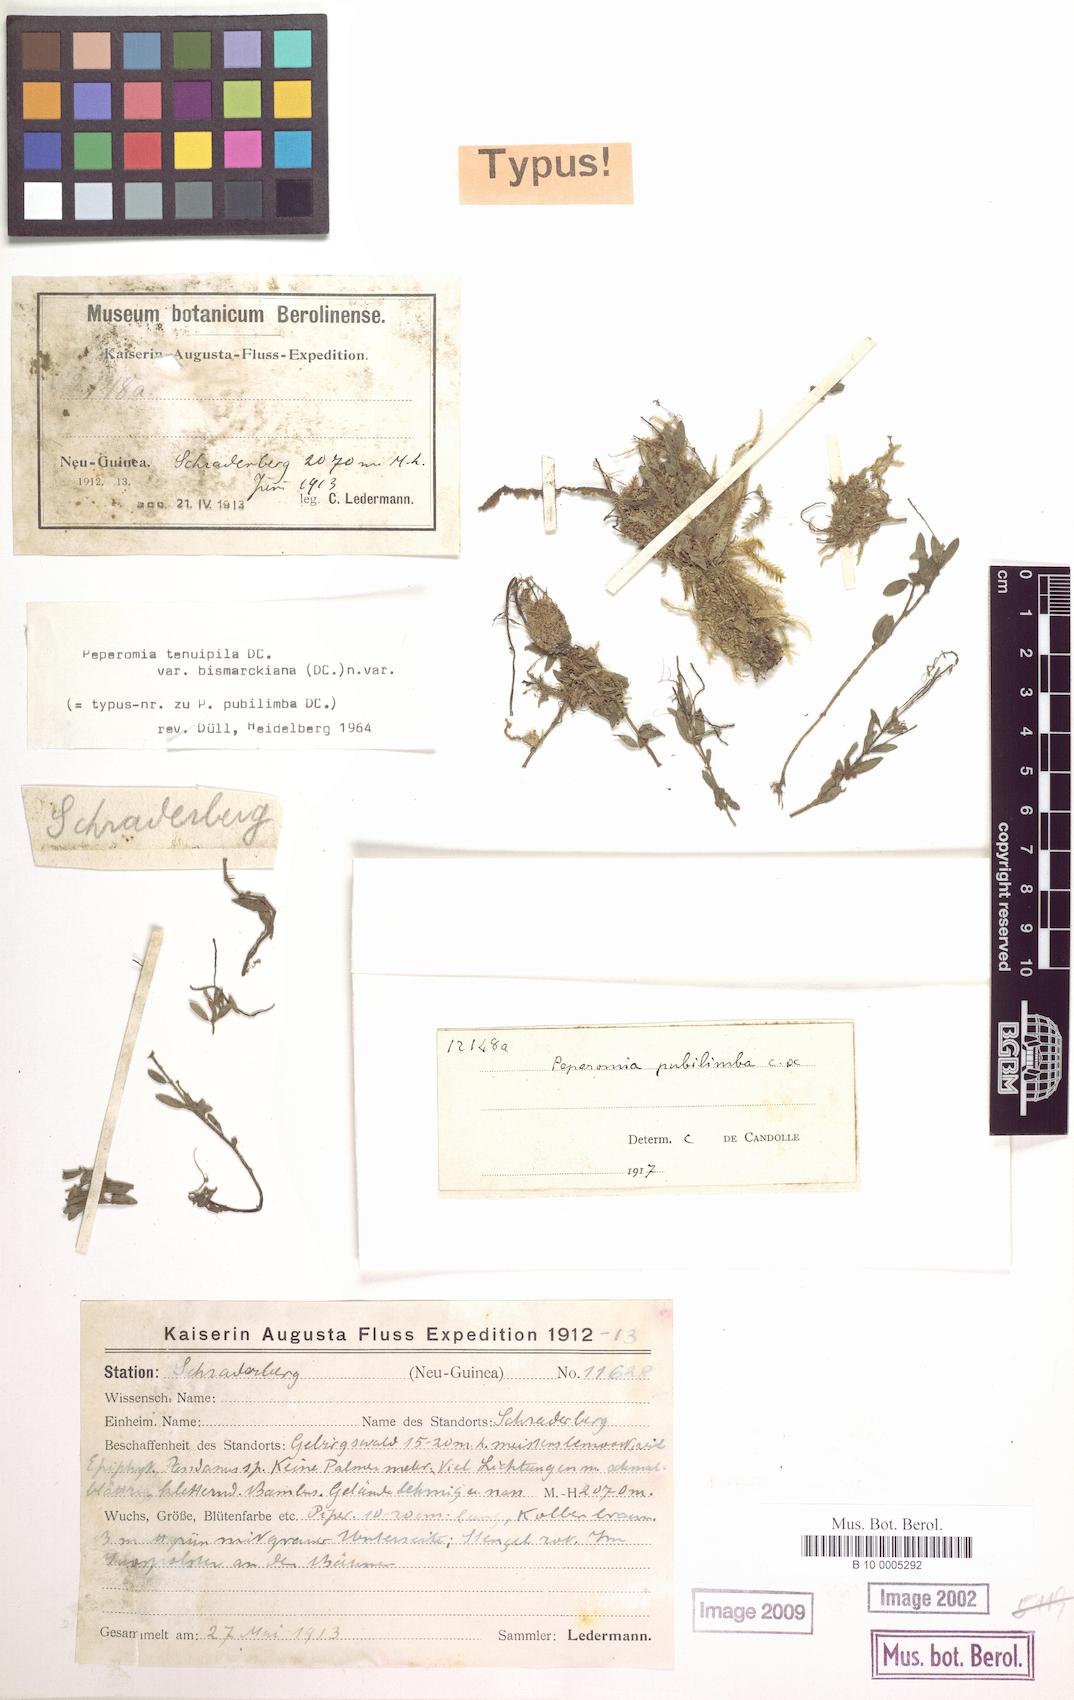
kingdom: Plantae
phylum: Tracheophyta
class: Magnoliopsida
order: Piperales
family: Piperaceae
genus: Peperomia
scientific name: Peperomia tenuipila
